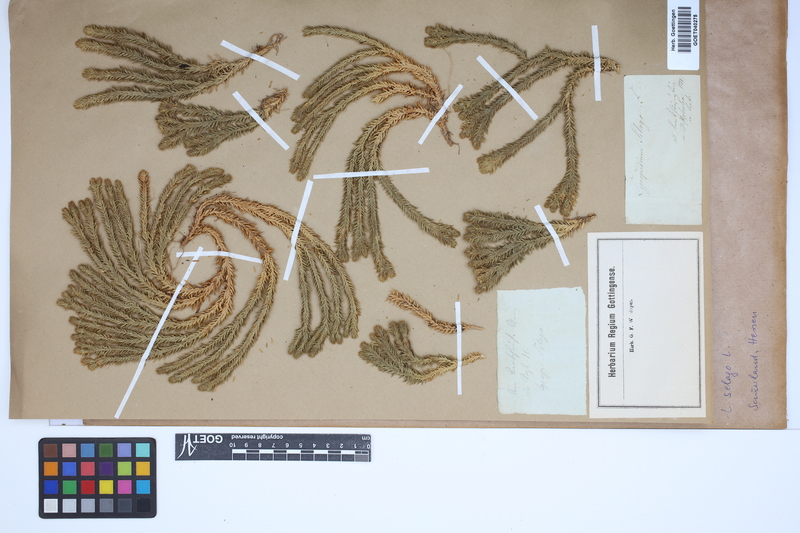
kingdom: Plantae
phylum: Tracheophyta
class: Lycopodiopsida
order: Lycopodiales
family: Lycopodiaceae
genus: Huperzia
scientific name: Huperzia selago
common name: Northern firmoss
